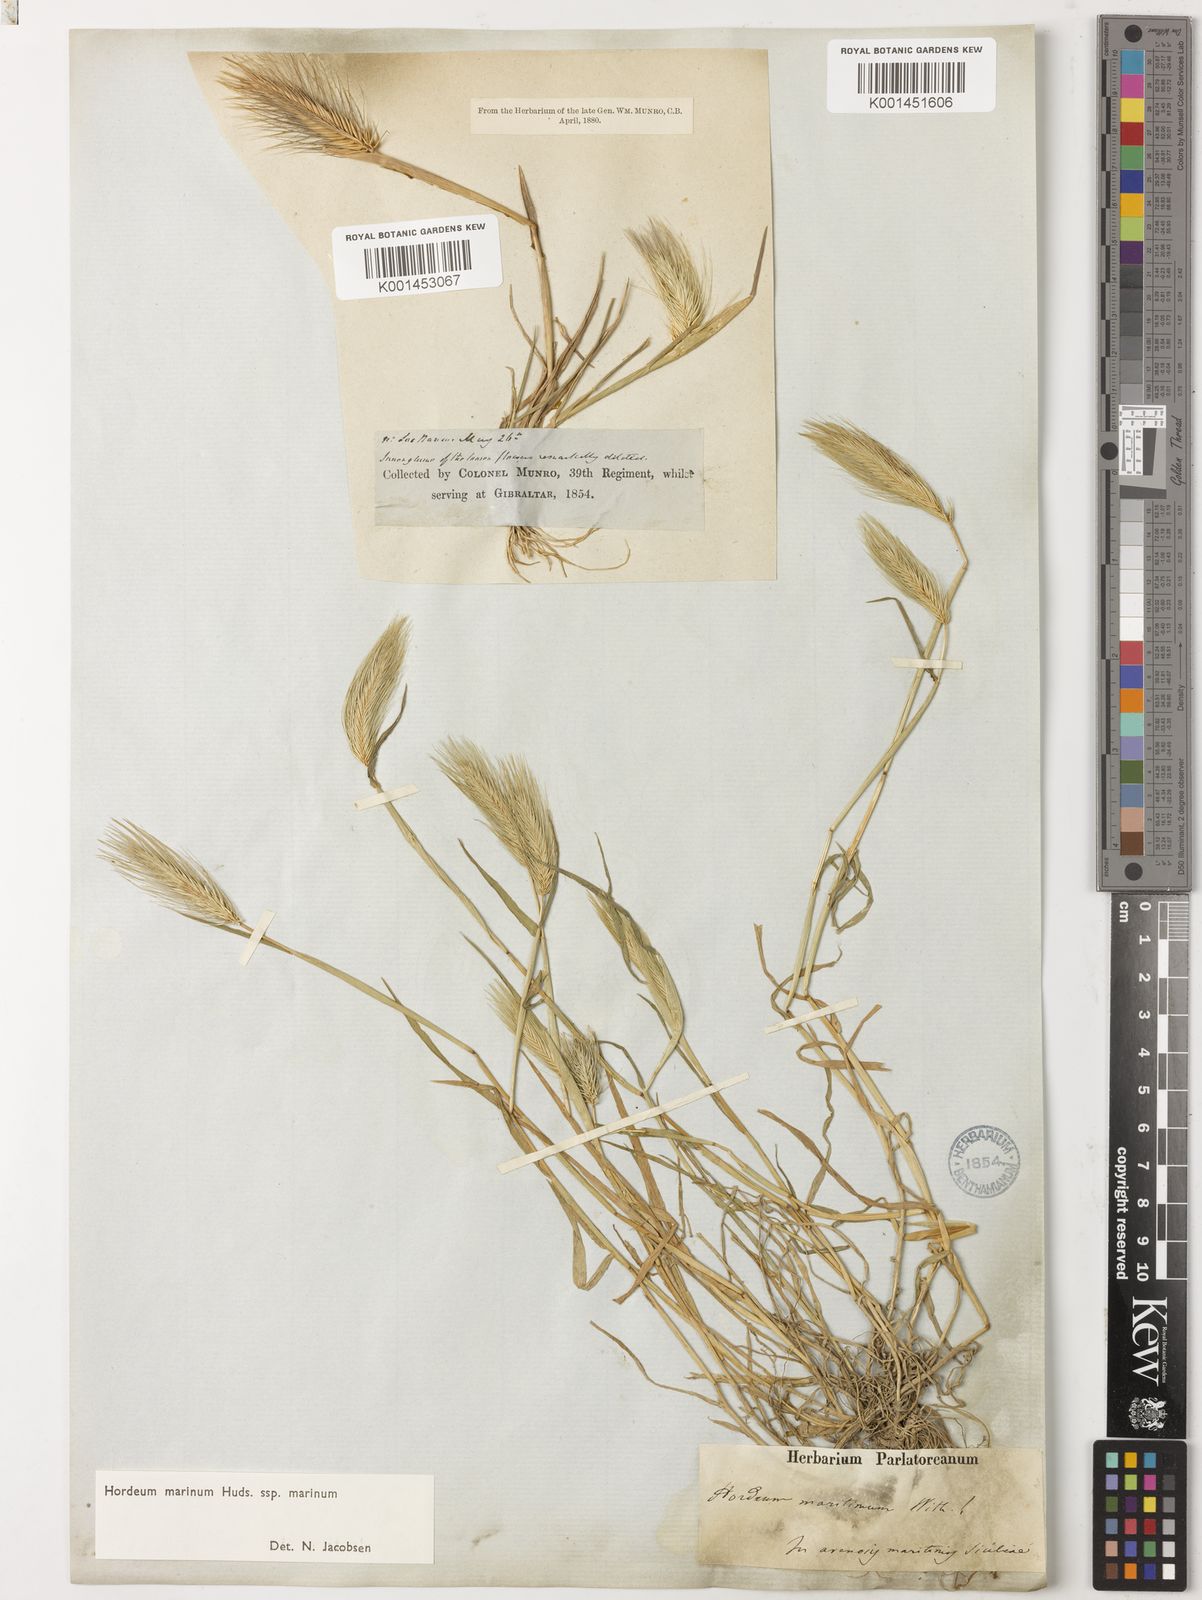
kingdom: Plantae
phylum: Tracheophyta
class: Liliopsida
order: Poales
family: Poaceae
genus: Hordeum
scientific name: Hordeum marinum
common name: Sea barley
